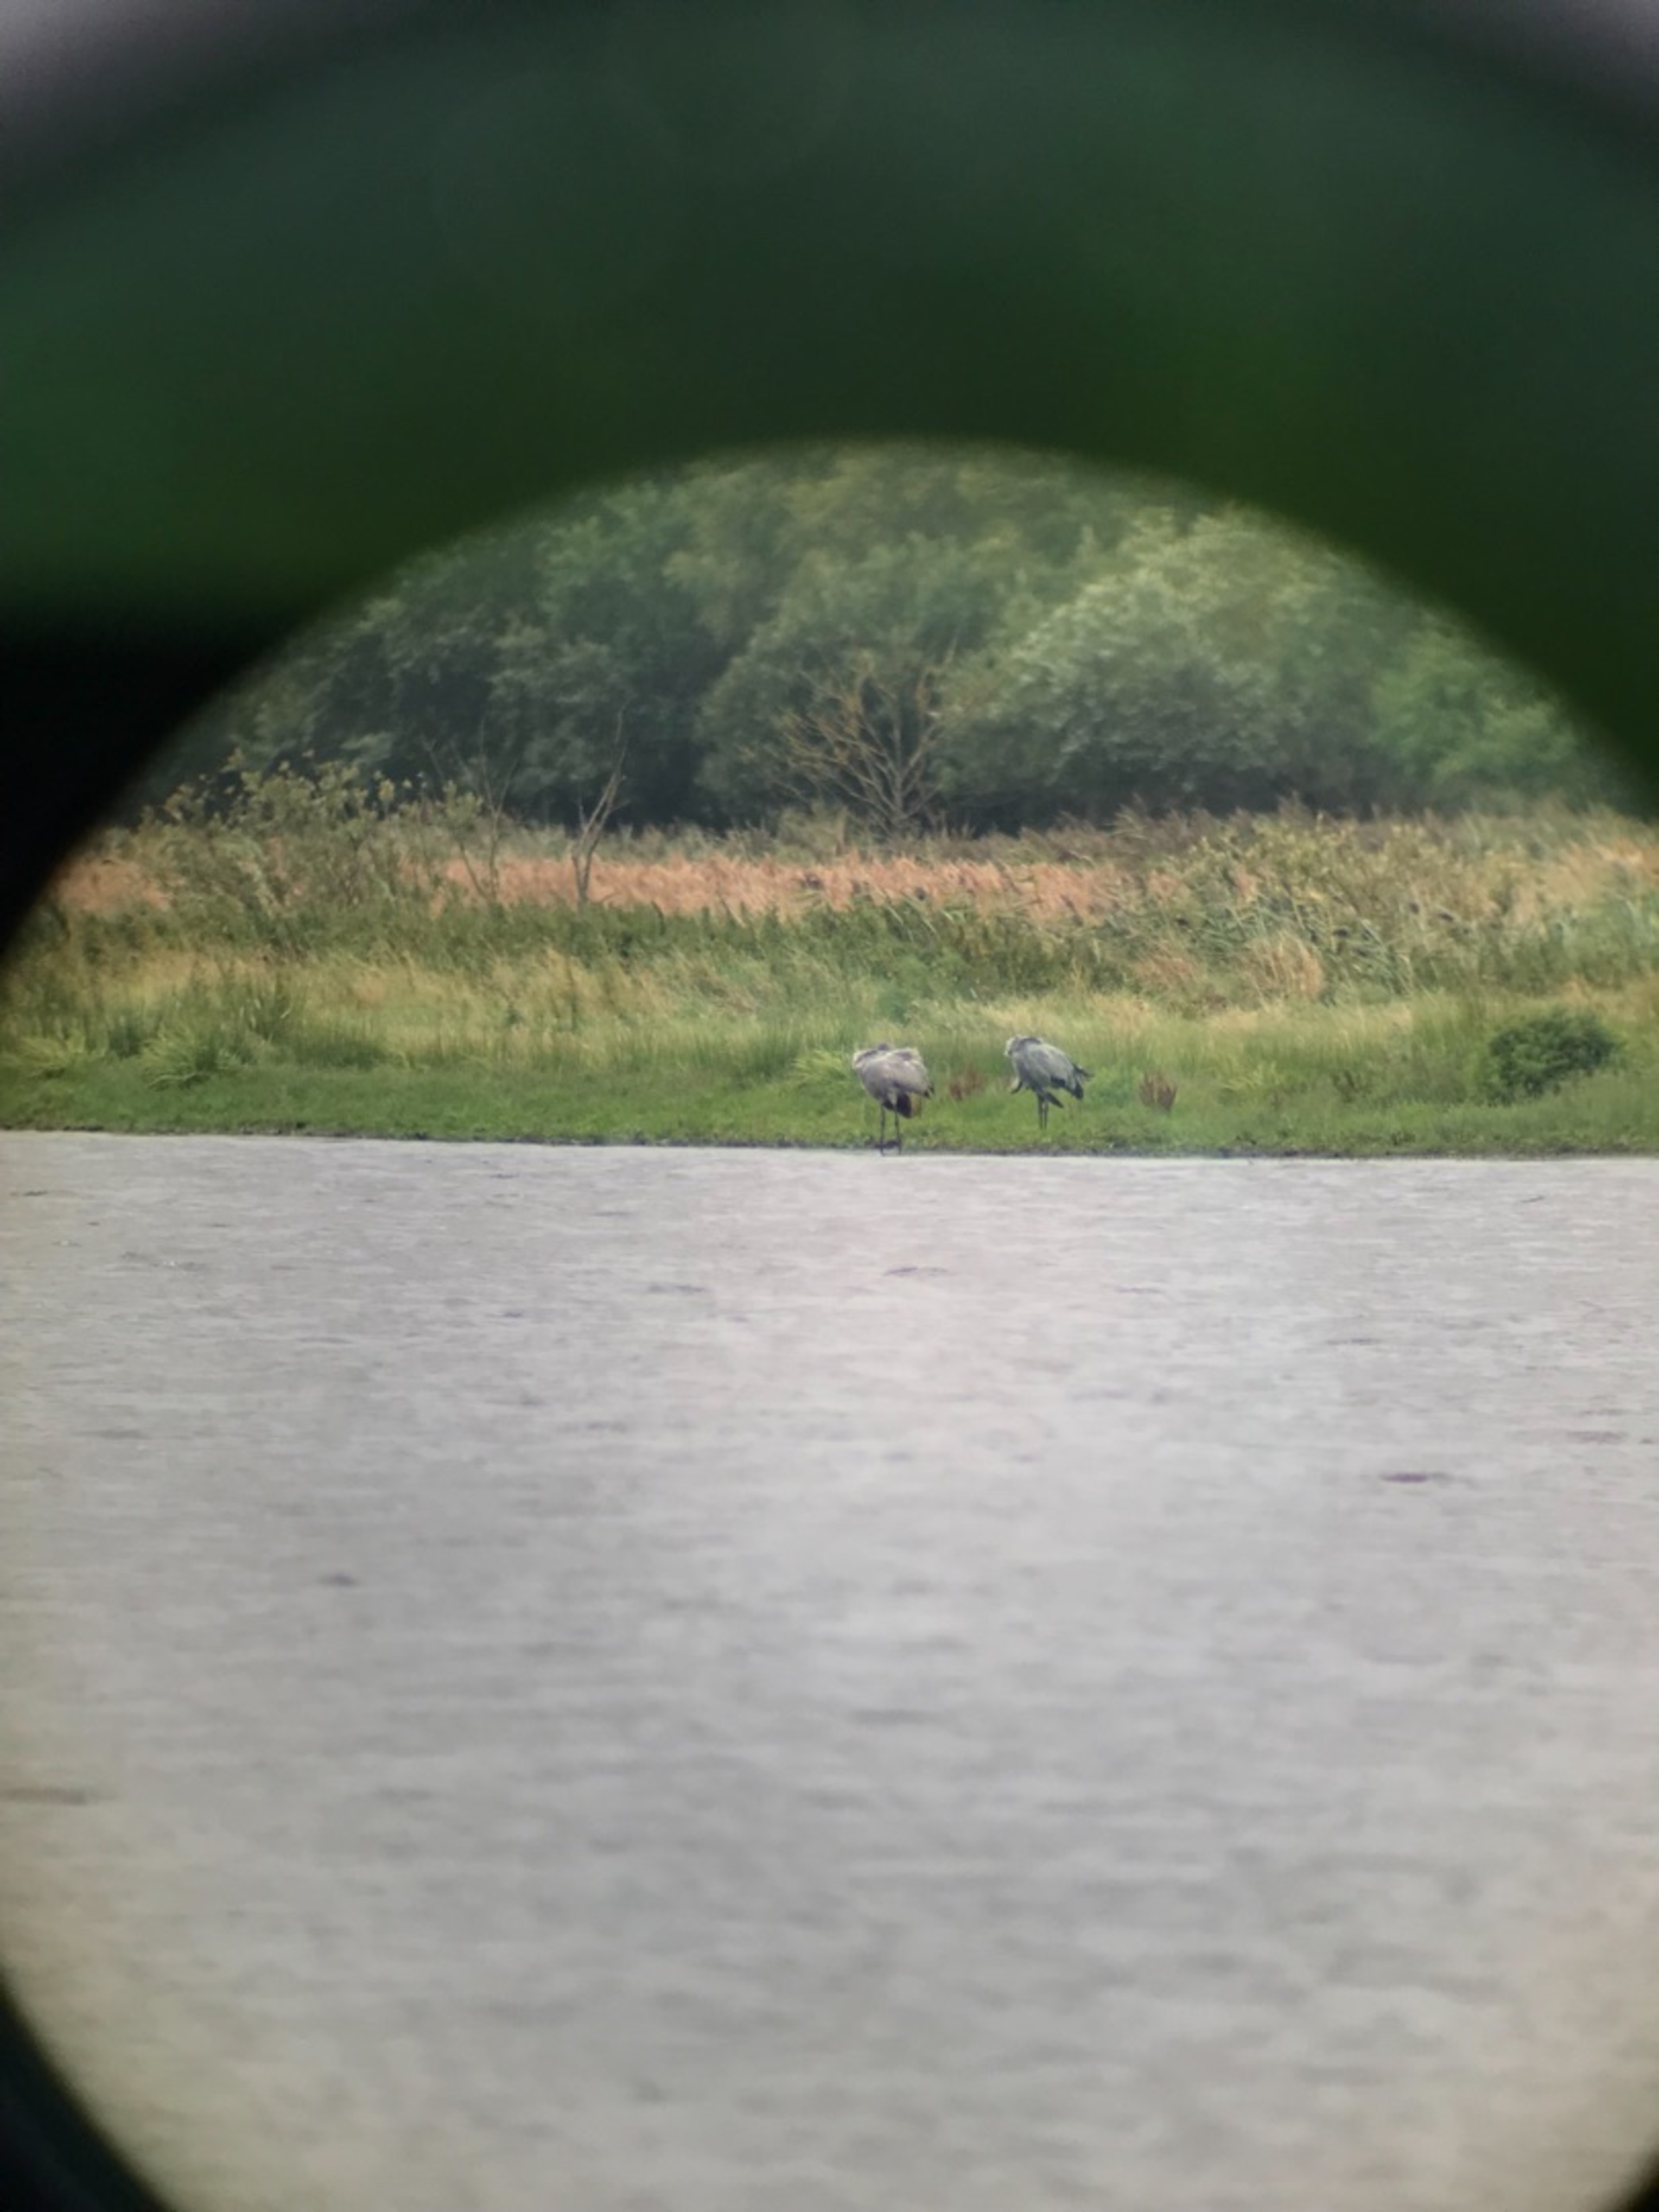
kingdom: Animalia
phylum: Chordata
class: Aves
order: Gruiformes
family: Gruidae
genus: Grus
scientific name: Grus grus
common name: Trane
